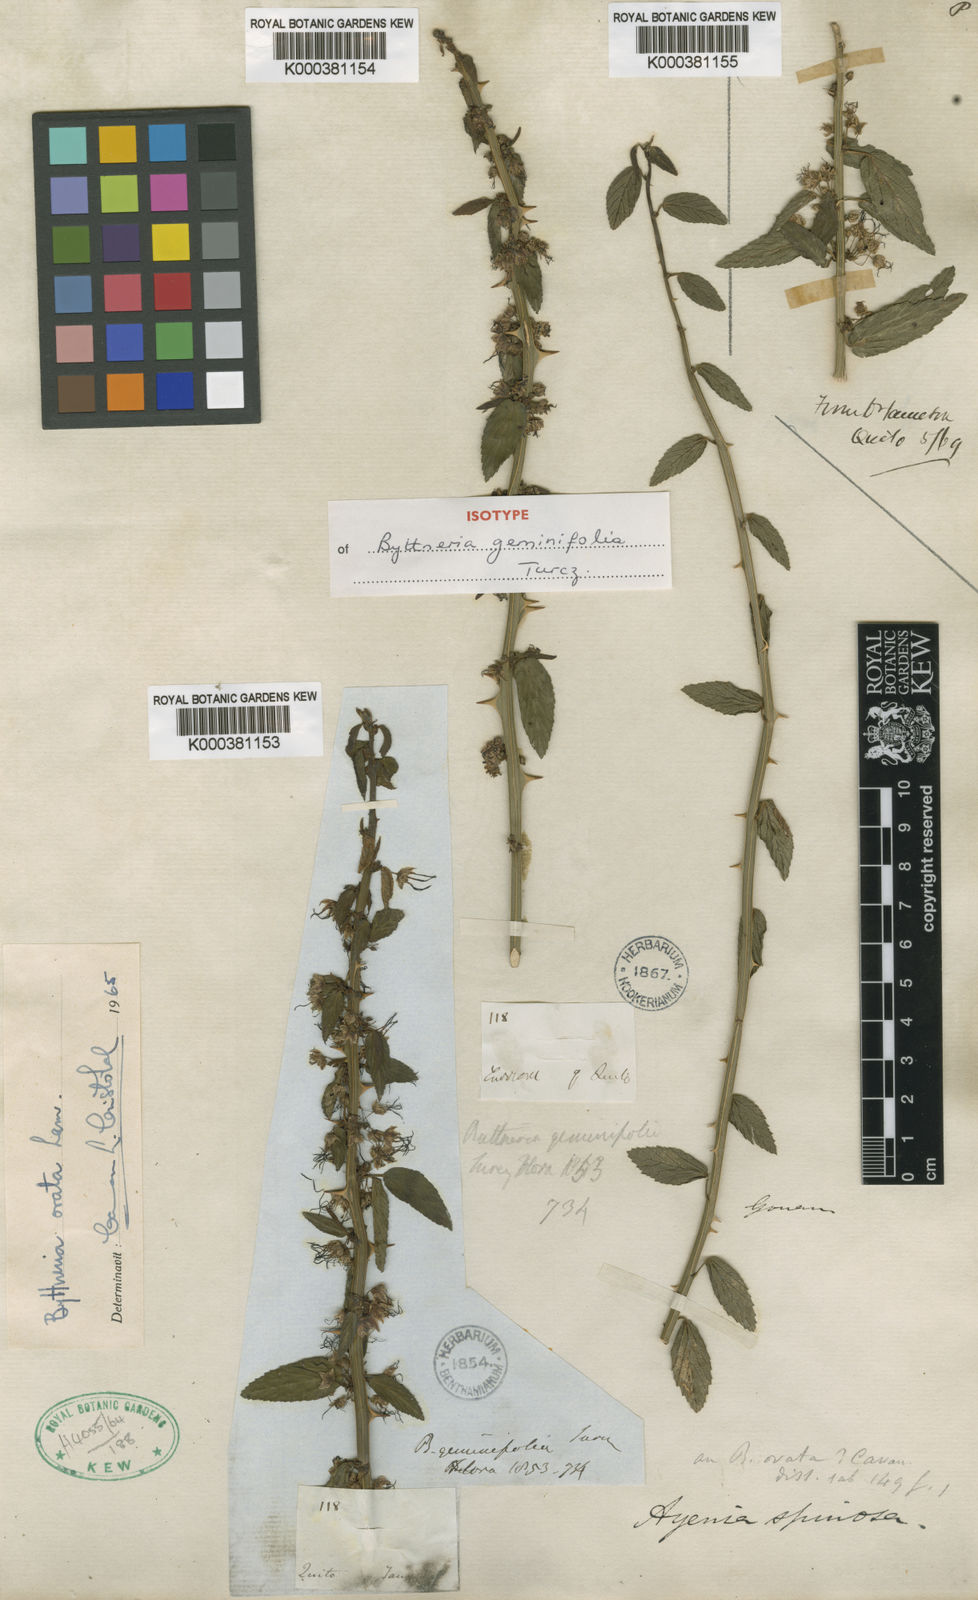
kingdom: Plantae
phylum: Tracheophyta
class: Magnoliopsida
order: Malvales
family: Malvaceae
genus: Byttneria
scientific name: Byttneria ovata
